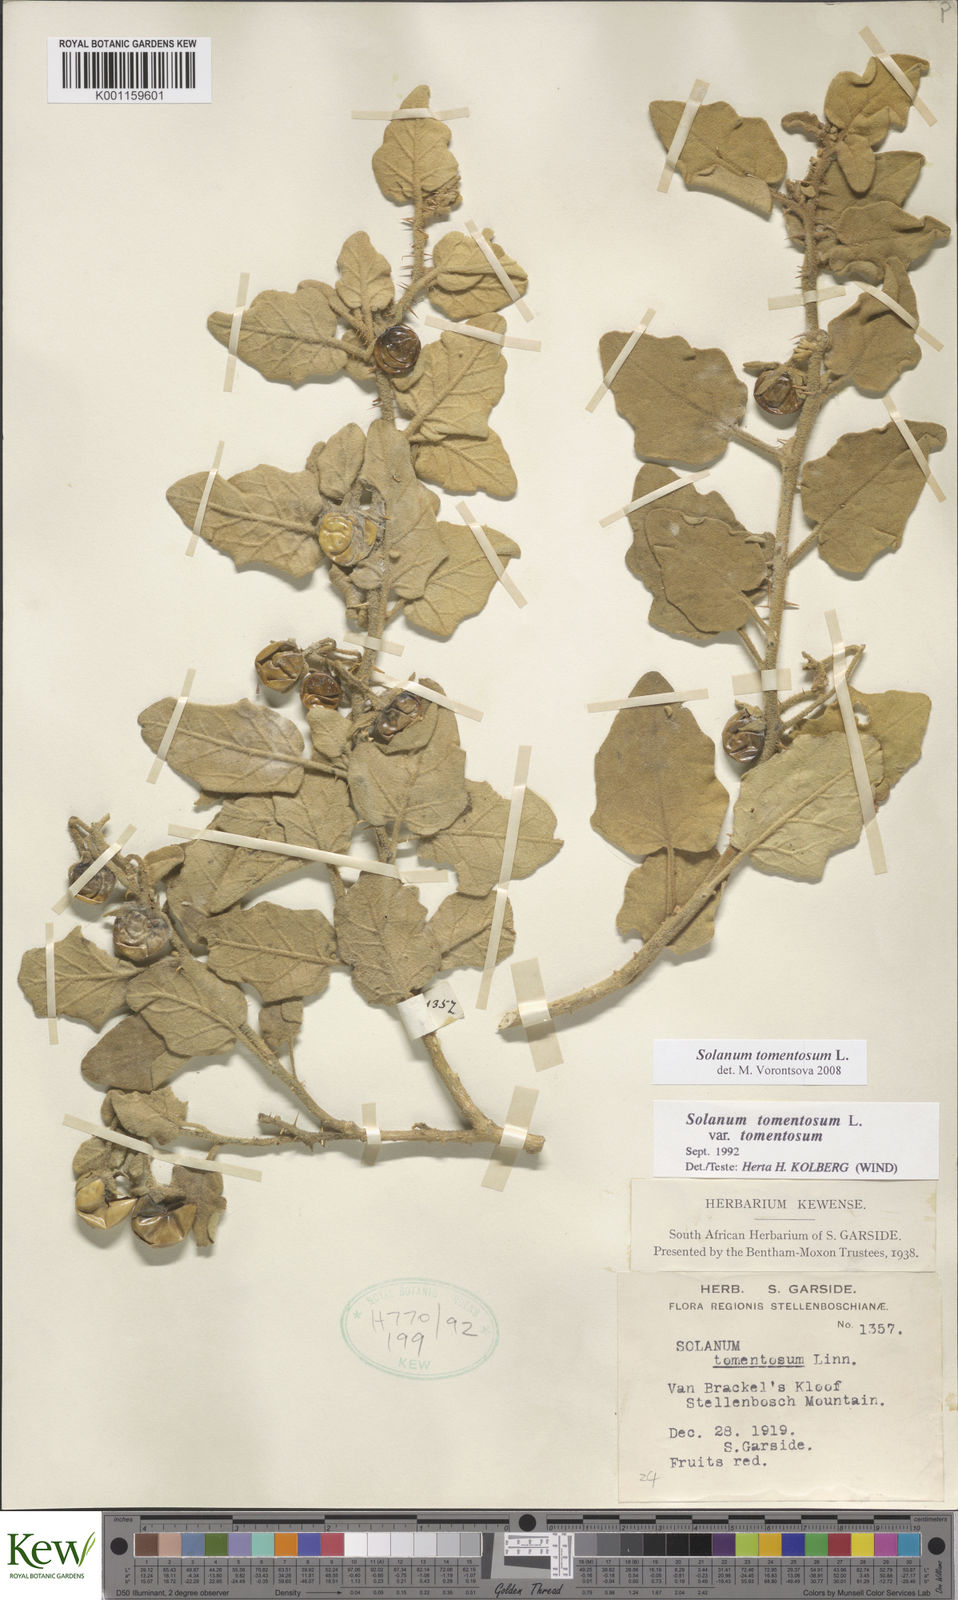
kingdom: Plantae
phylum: Tracheophyta
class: Magnoliopsida
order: Solanales
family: Solanaceae
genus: Solanum
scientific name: Solanum tomentosum
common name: Wild aubergine
